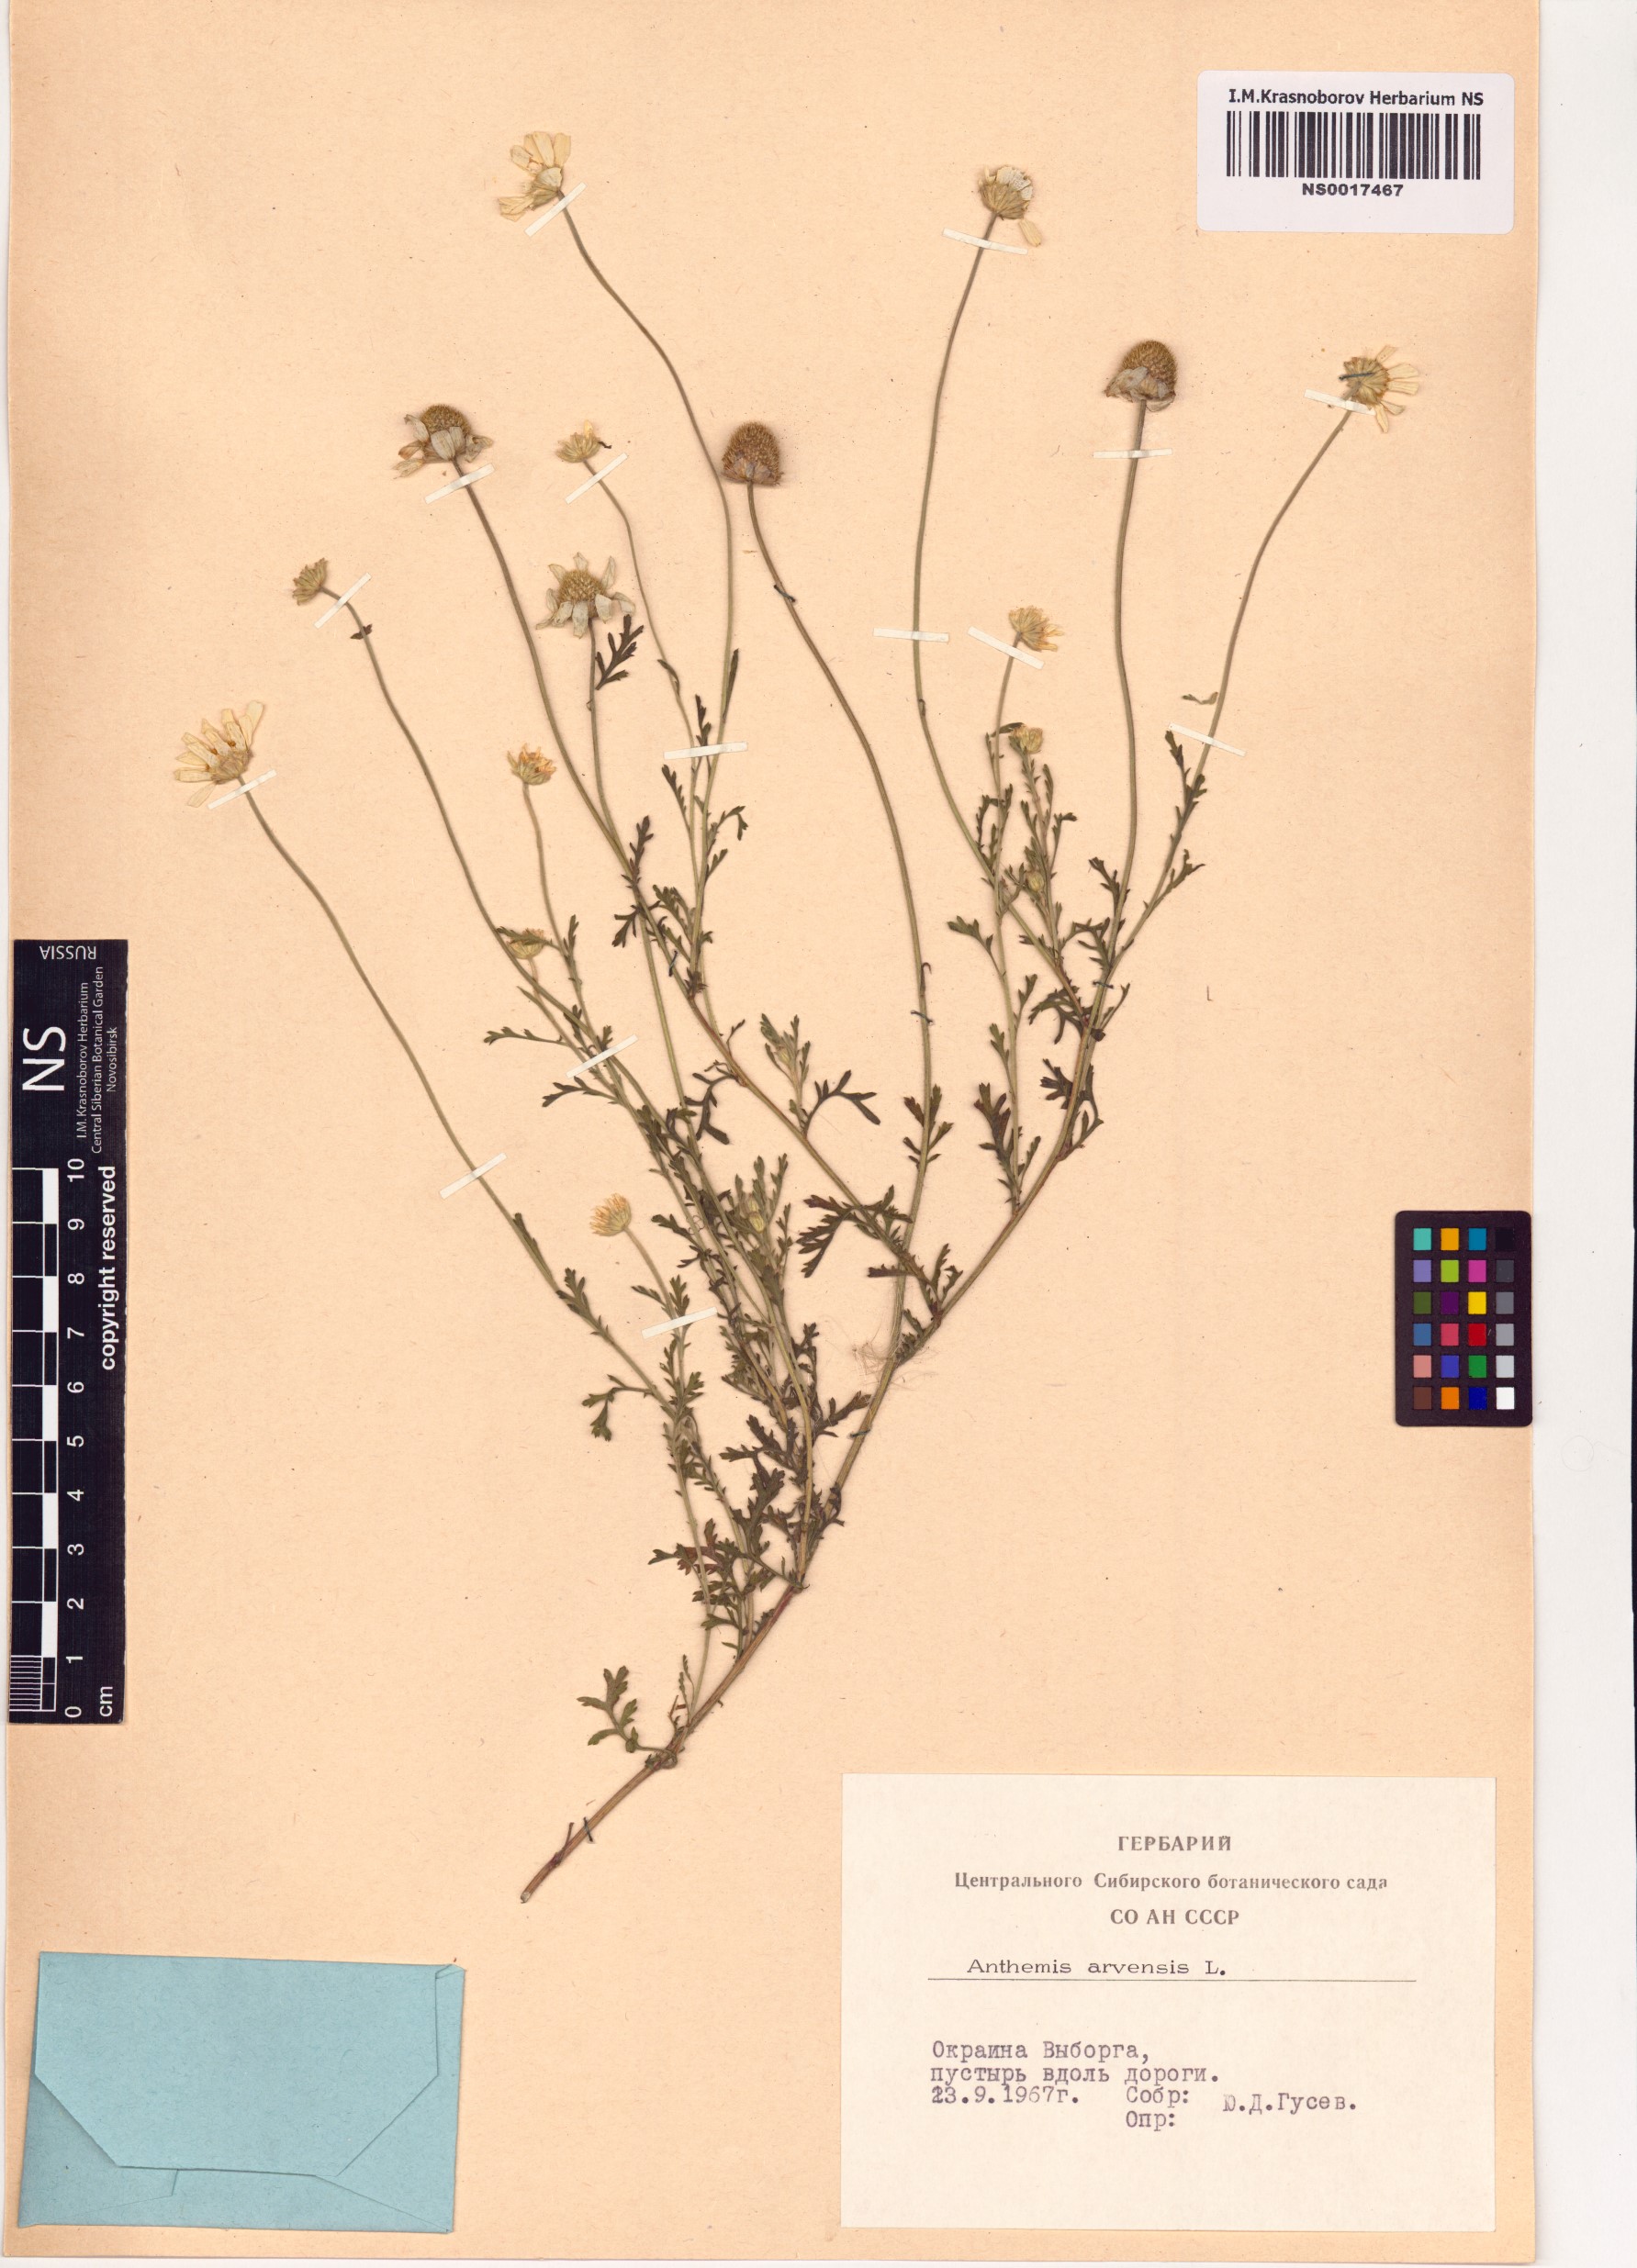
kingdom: Plantae
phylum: Tracheophyta
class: Magnoliopsida
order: Asterales
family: Asteraceae
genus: Anthemis
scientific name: Anthemis arvensis
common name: Corn chamomile
